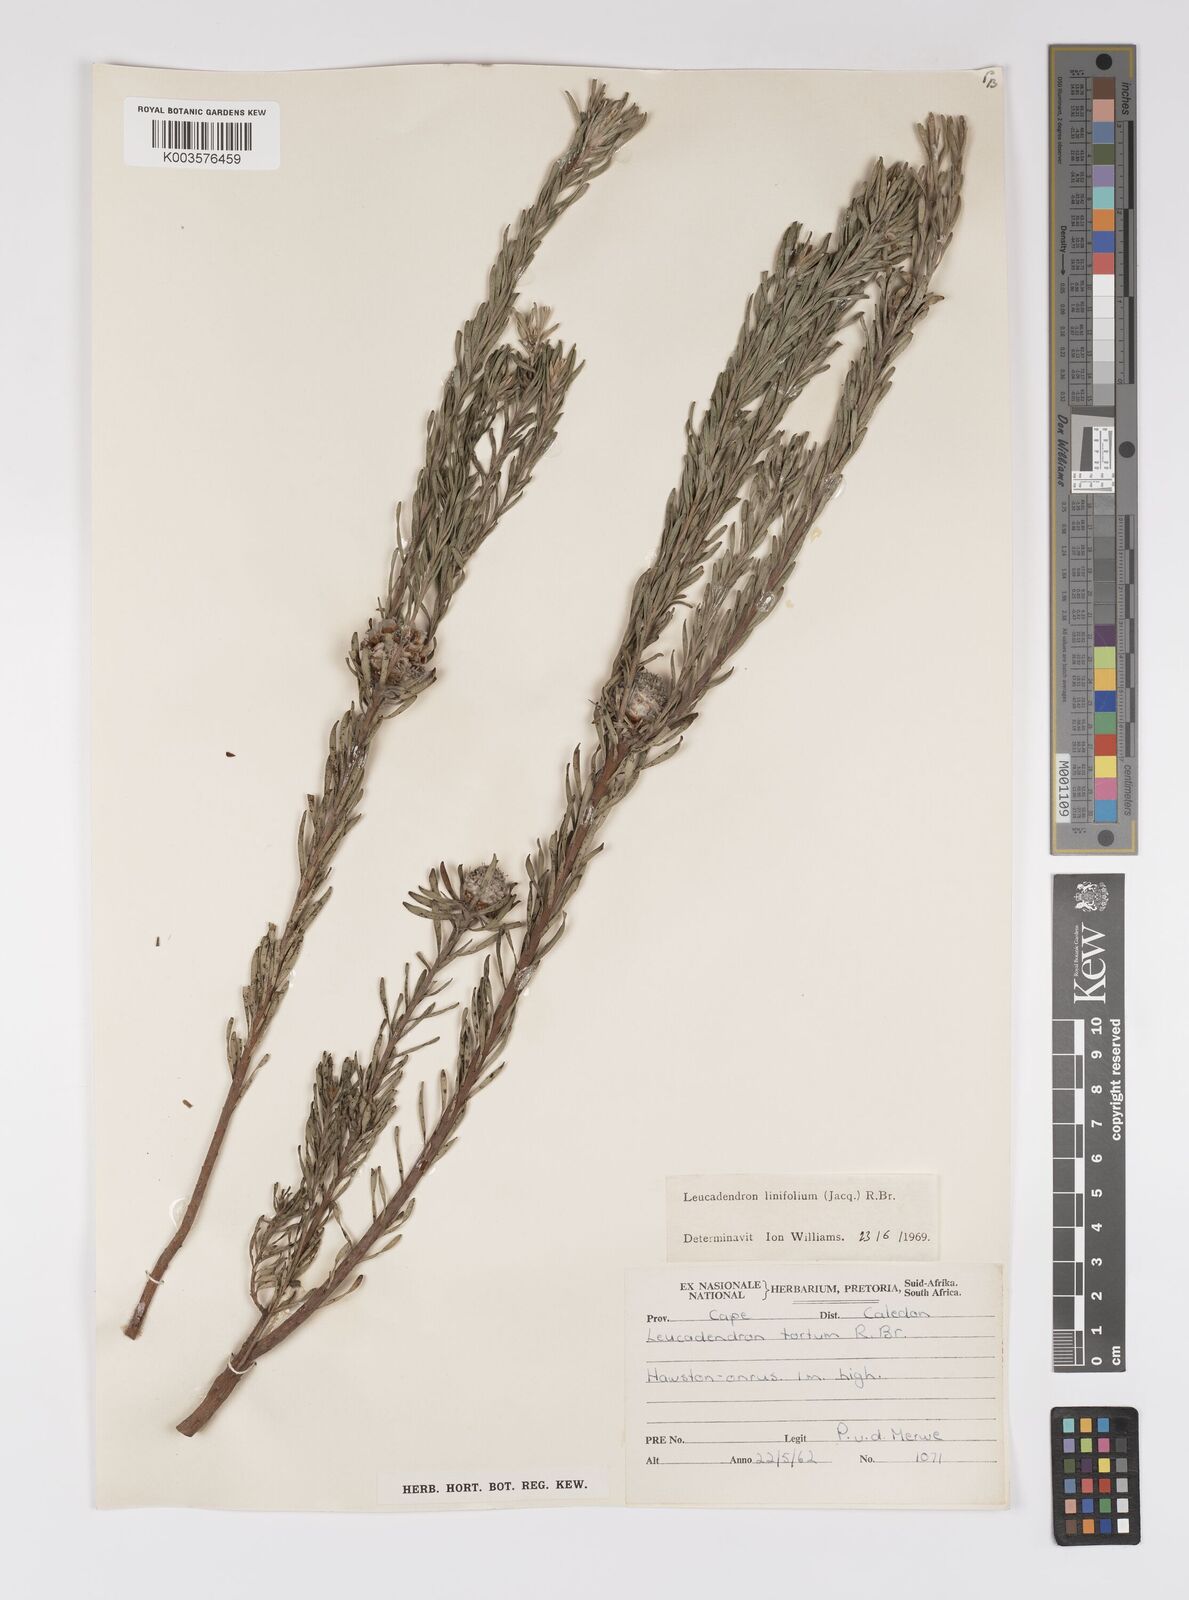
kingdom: Plantae
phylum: Tracheophyta
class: Magnoliopsida
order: Proteales
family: Proteaceae
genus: Leucadendron
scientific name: Leucadendron linifolium
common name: Line-leaf conebush
